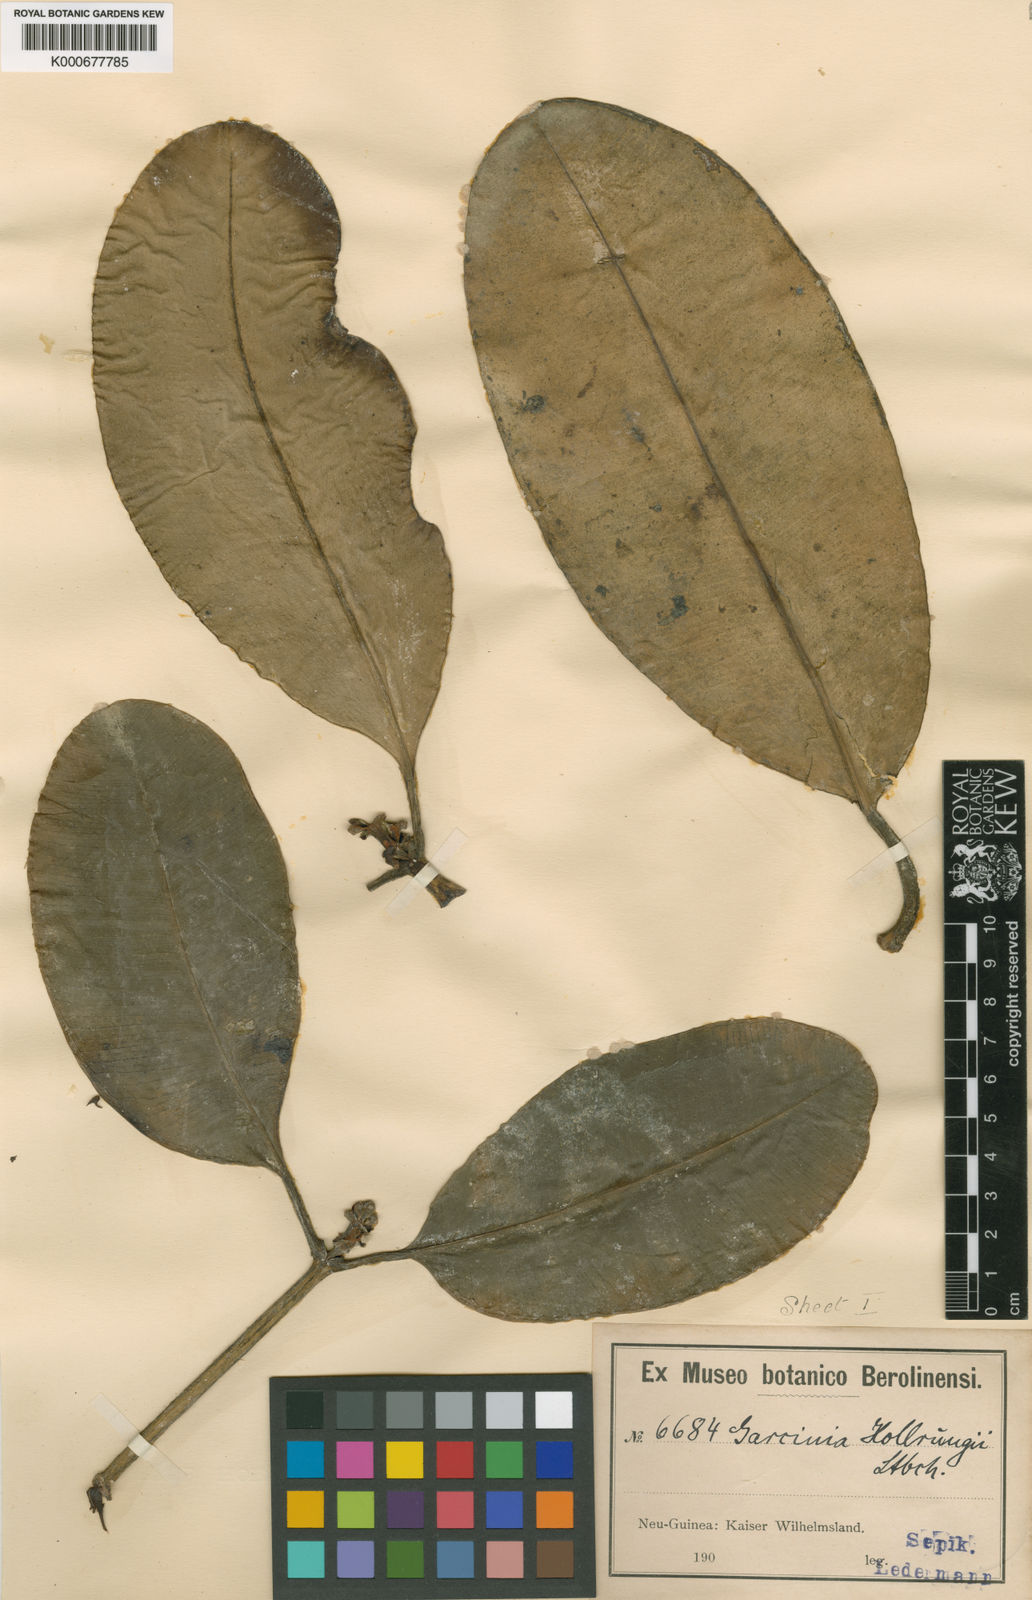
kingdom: Plantae
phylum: Tracheophyta
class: Magnoliopsida
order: Malpighiales
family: Clusiaceae
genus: Garcinia
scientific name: Garcinia hollrungii
